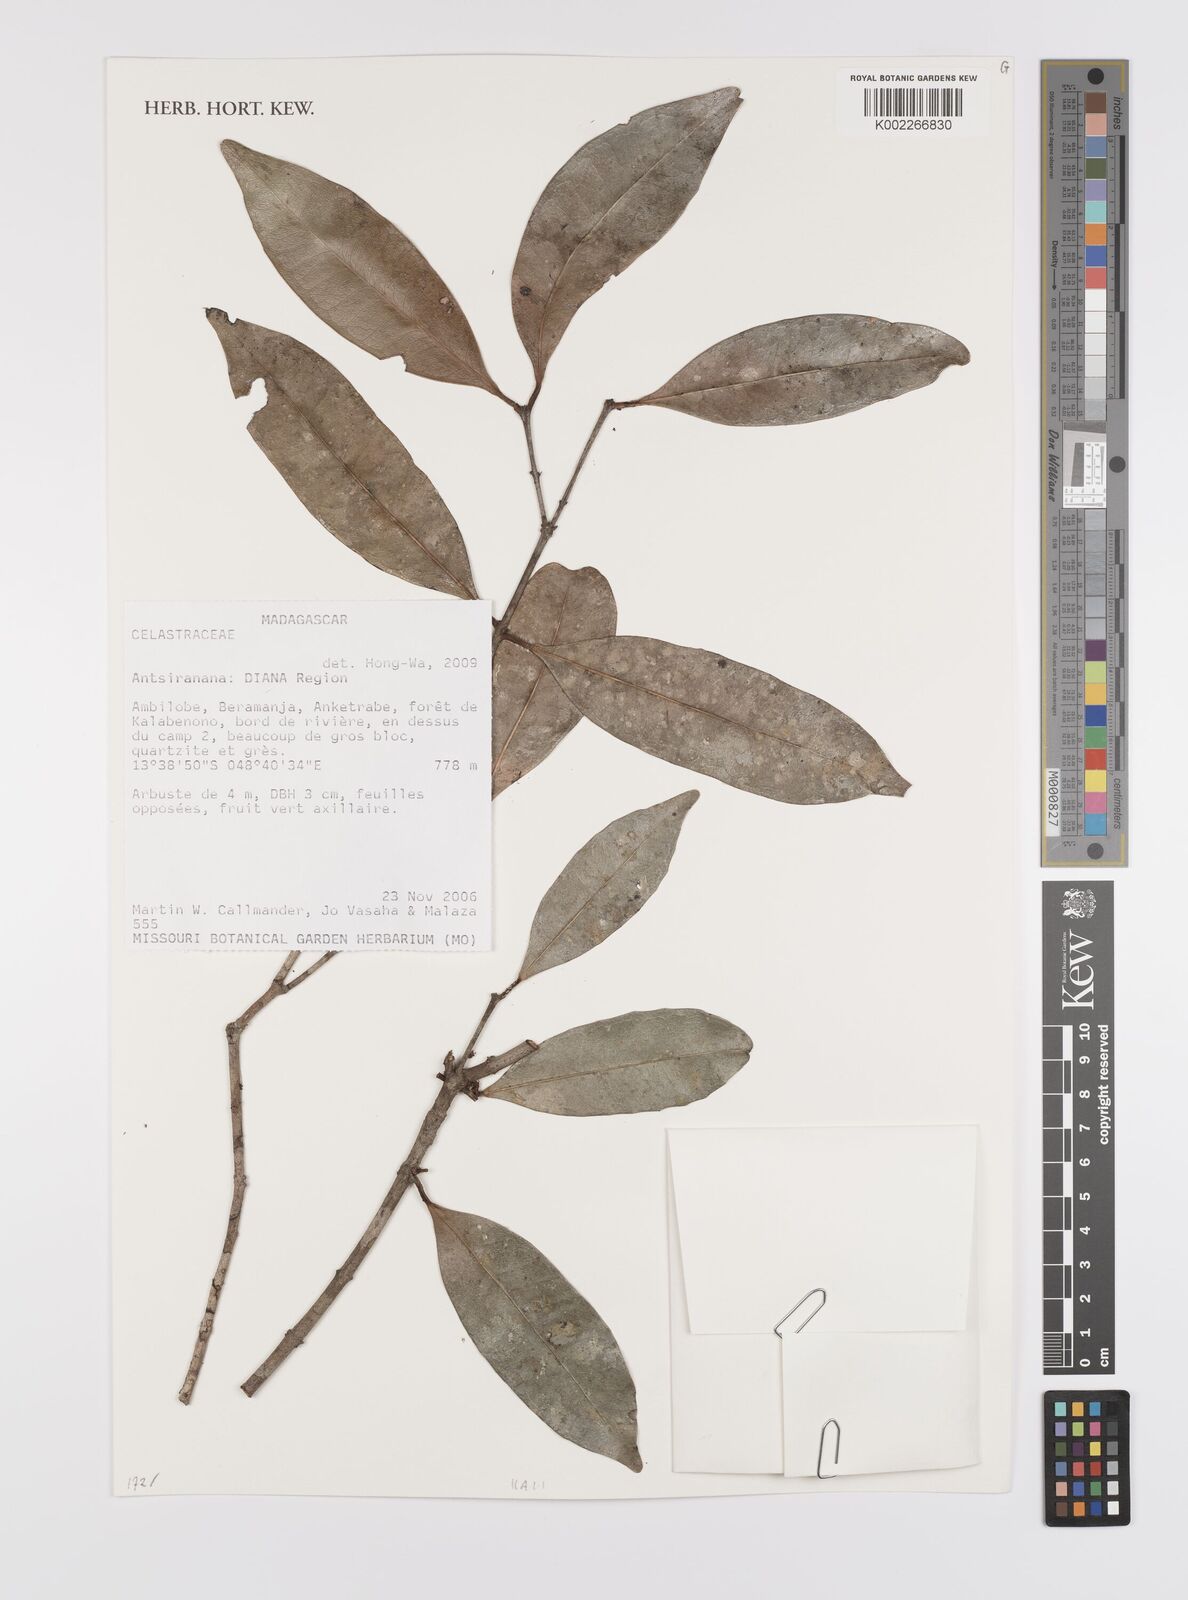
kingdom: Plantae
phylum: Tracheophyta
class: Magnoliopsida
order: Celastrales
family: Celastraceae
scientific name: Celastraceae
